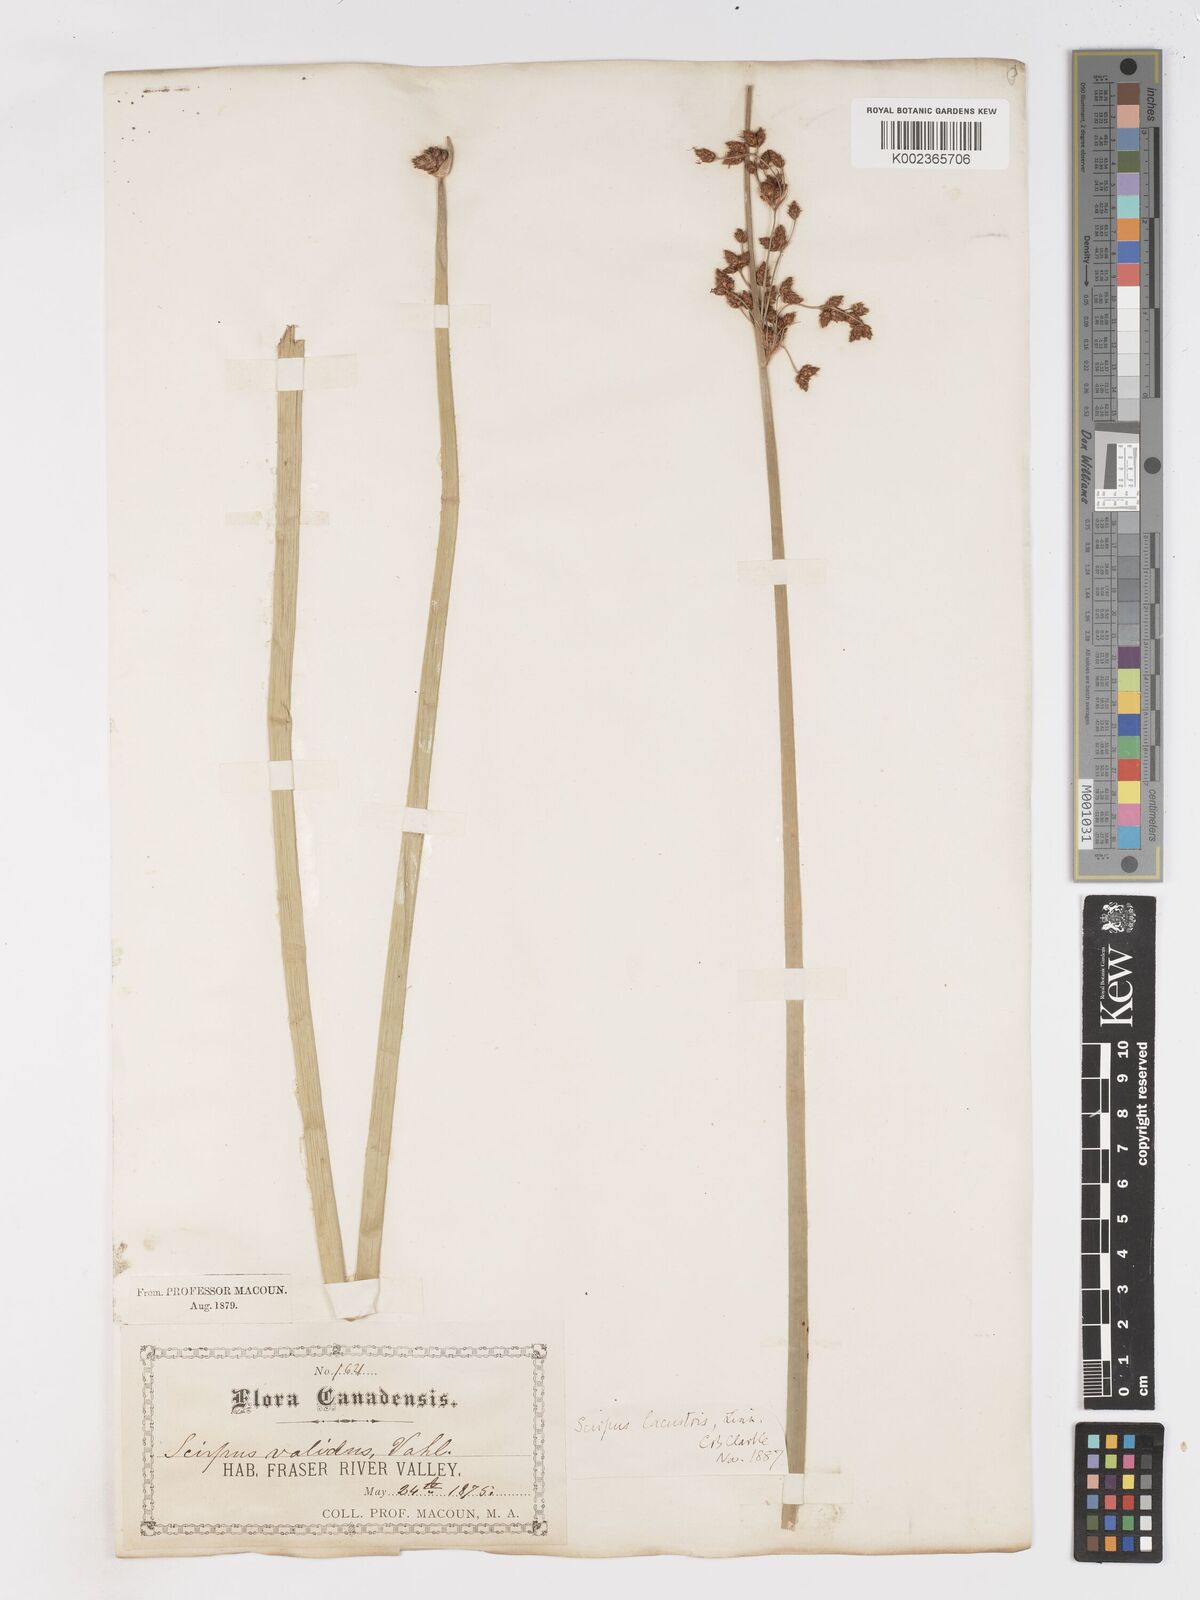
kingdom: Plantae
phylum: Tracheophyta
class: Liliopsida
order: Poales
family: Cyperaceae
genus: Schoenoplectus
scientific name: Schoenoplectus acutus
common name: Hardstem bulrush
